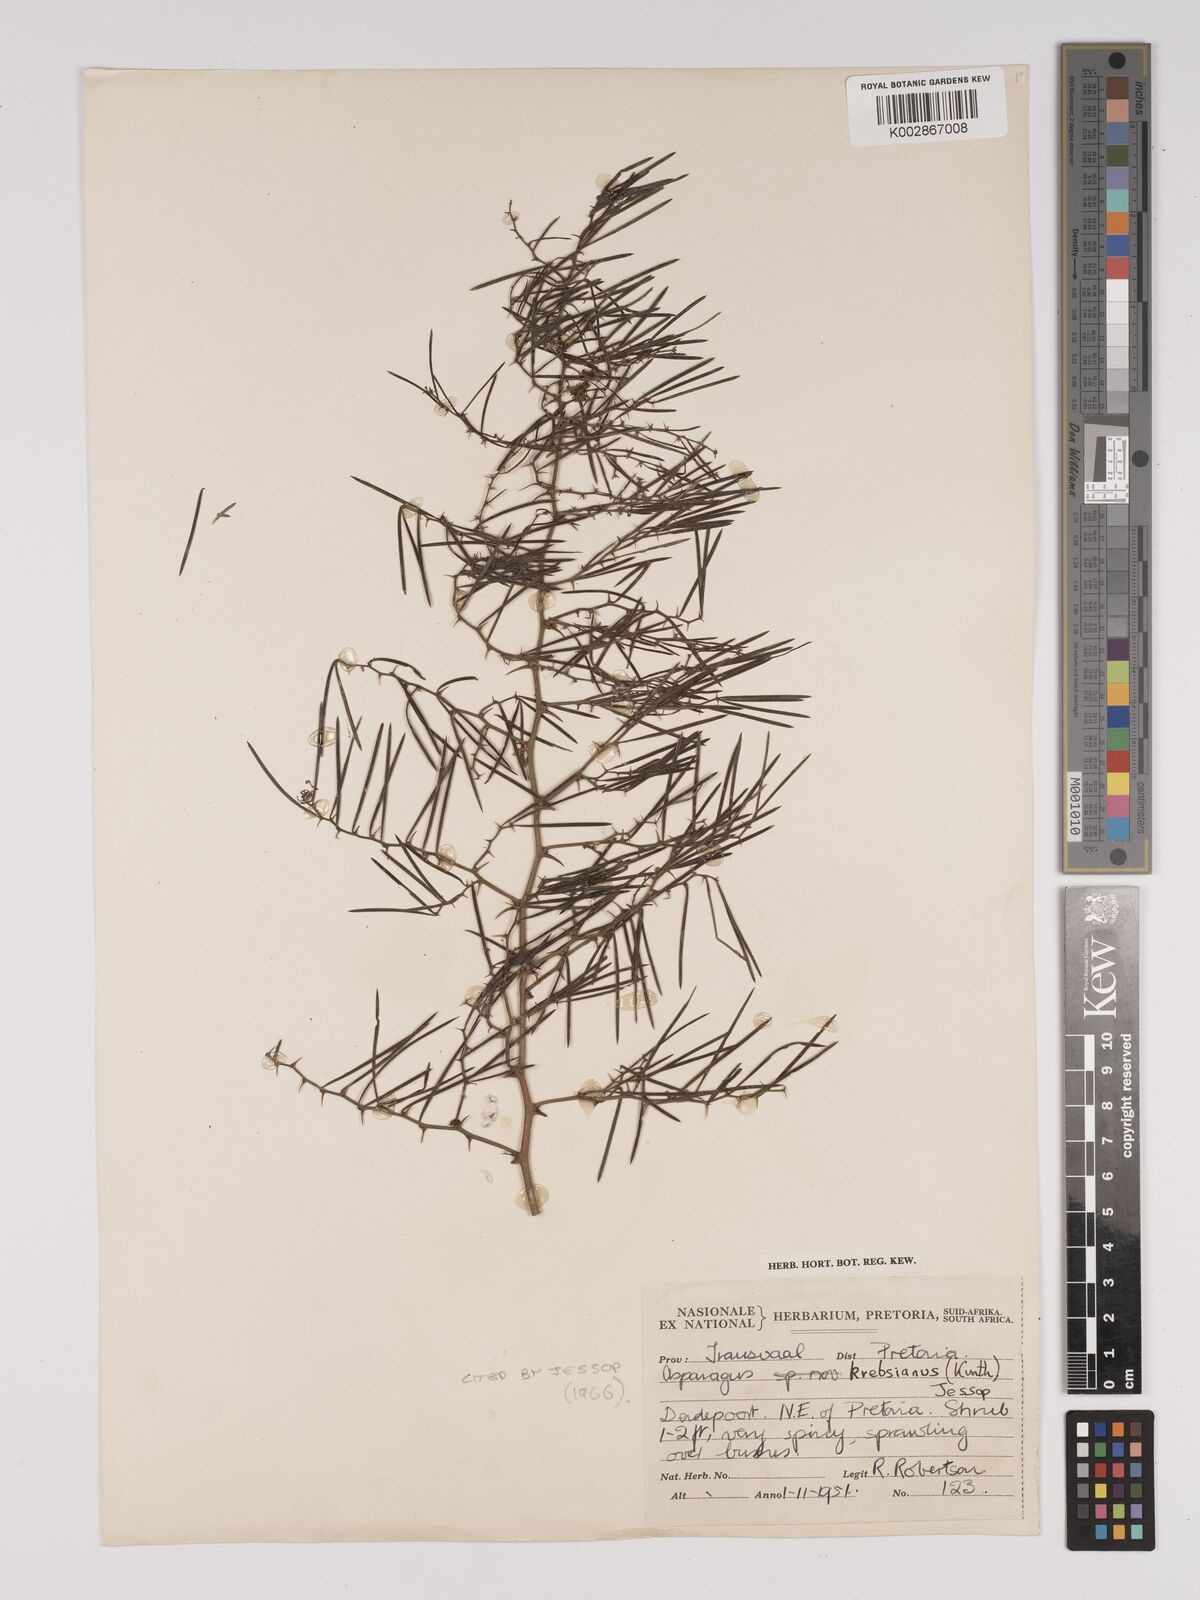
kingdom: Plantae
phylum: Tracheophyta
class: Liliopsida
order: Asparagales
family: Asparagaceae
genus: Asparagus
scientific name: Asparagus breslerianus
